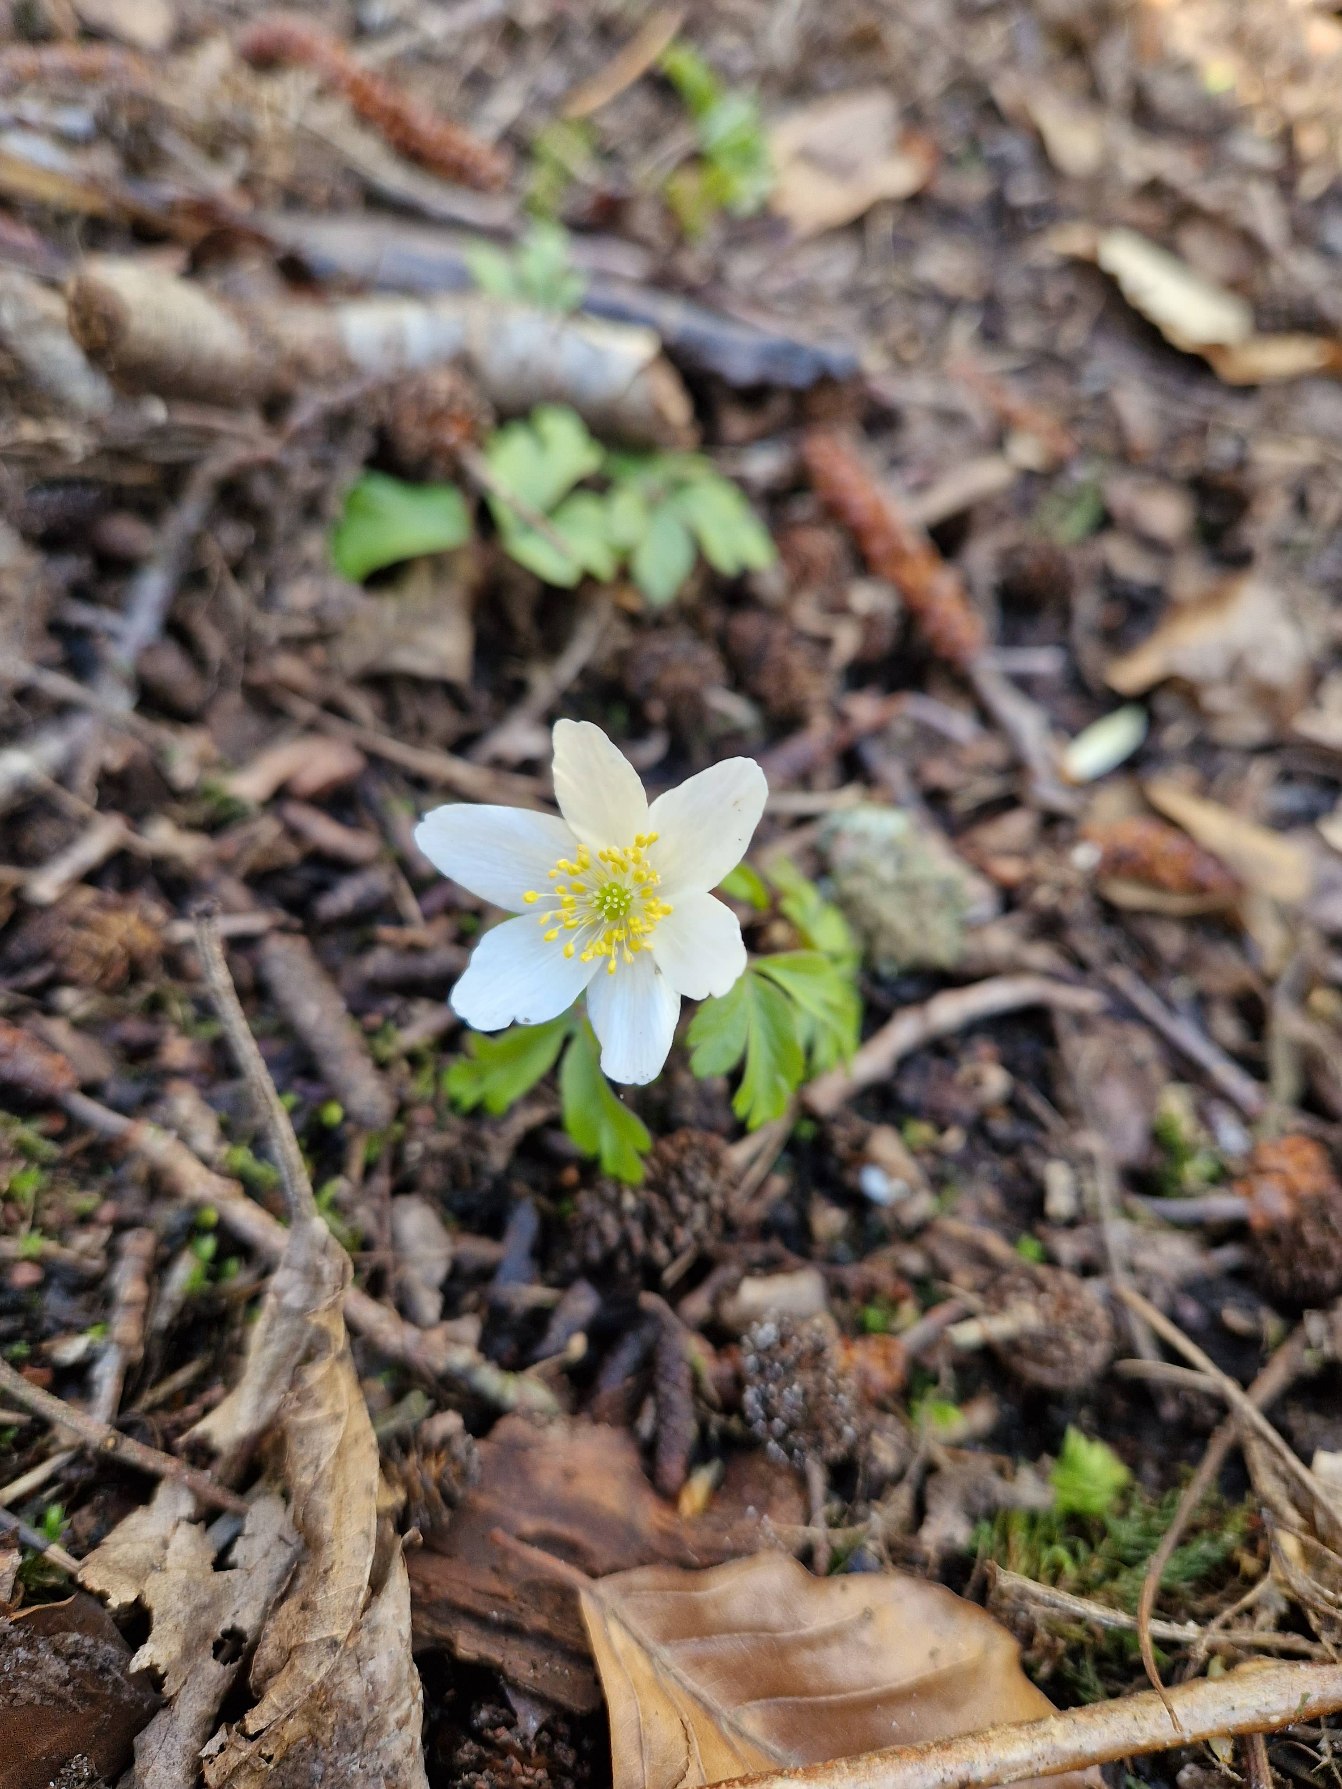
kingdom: Plantae
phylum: Tracheophyta
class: Magnoliopsida
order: Ranunculales
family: Ranunculaceae
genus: Anemone
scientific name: Anemone nemorosa
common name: Hvid anemone
